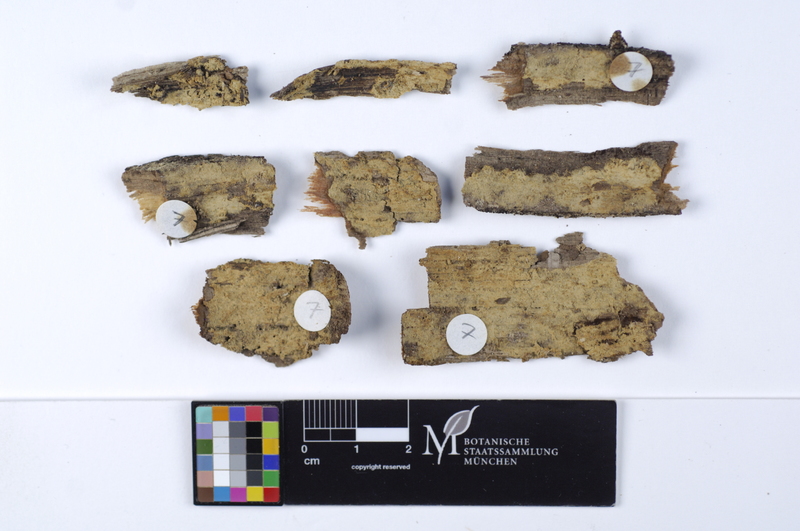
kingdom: Fungi
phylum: Basidiomycota
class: Agaricomycetes
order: Cantharellales
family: Botryobasidiaceae
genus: Botryobasidium
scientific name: Botryobasidium laeve
